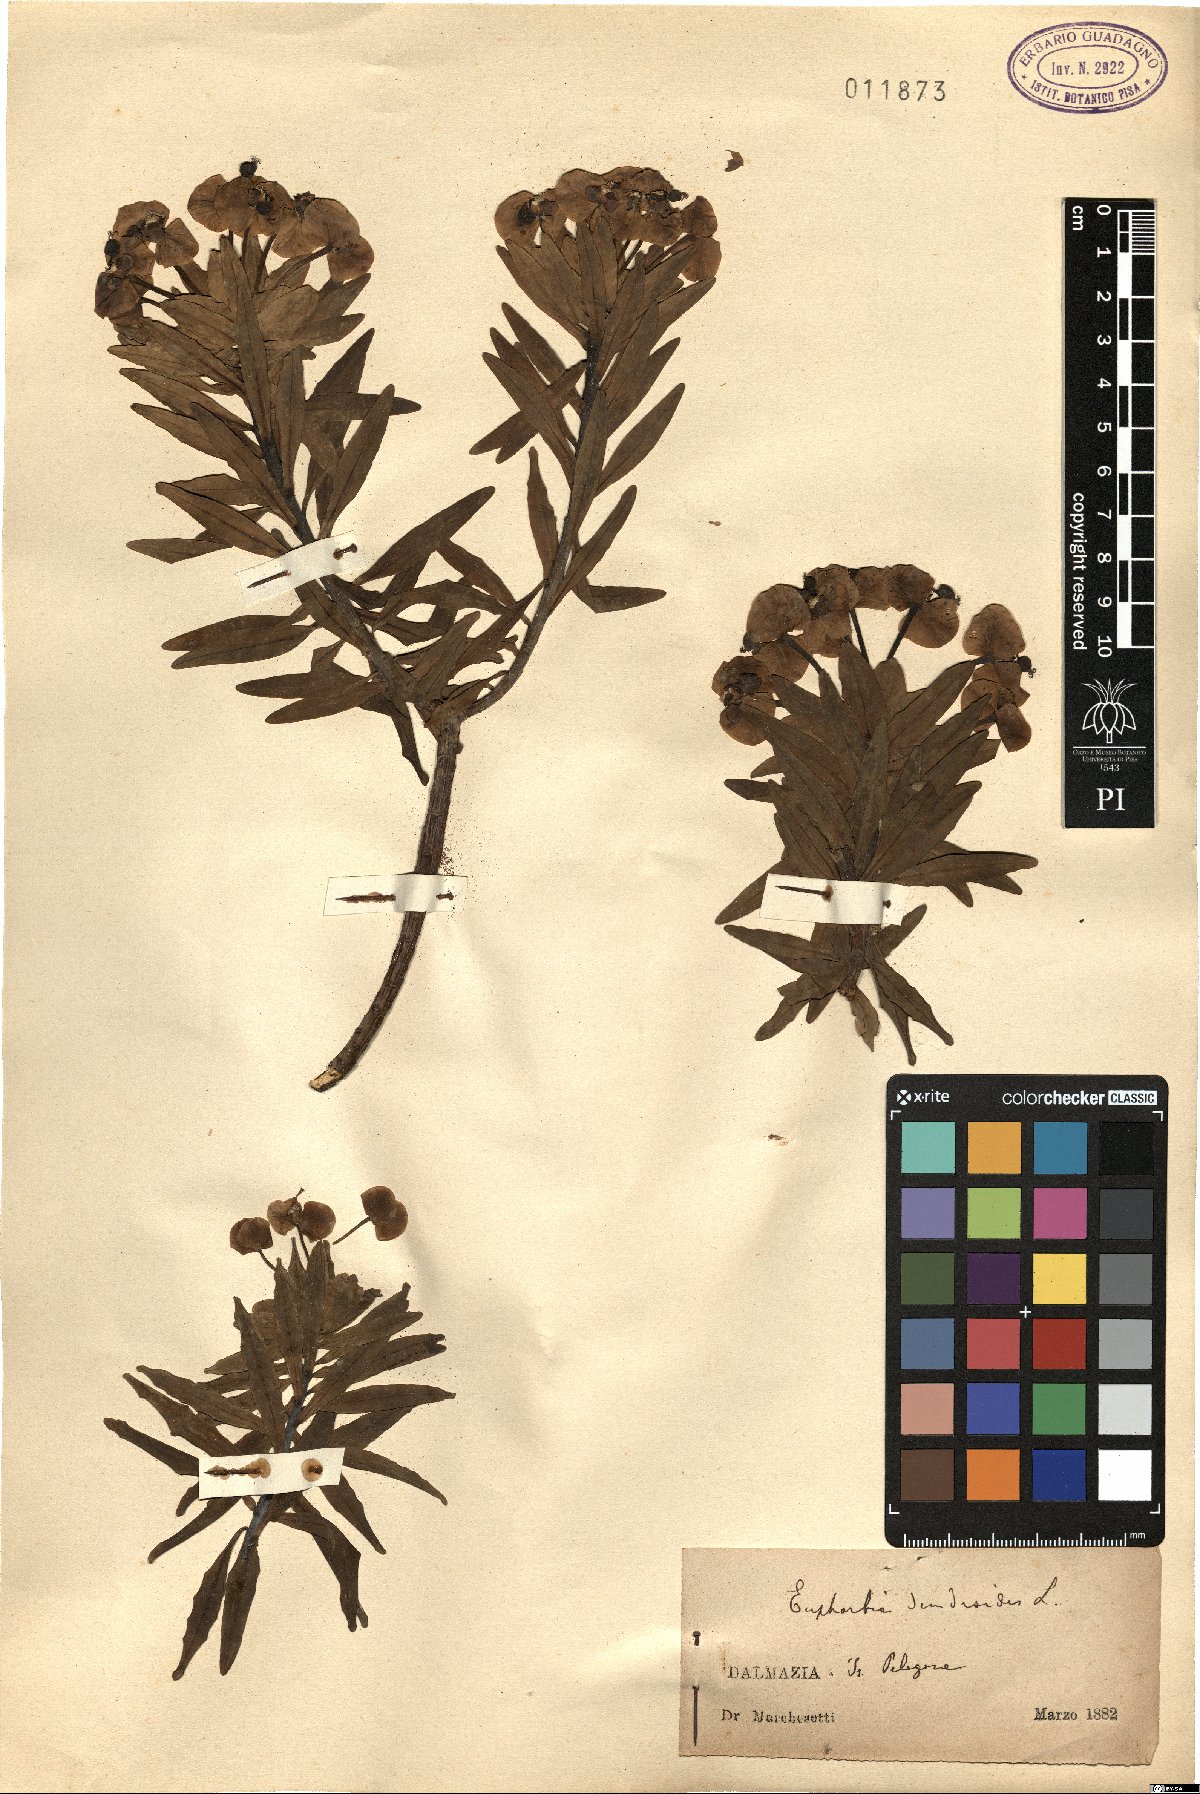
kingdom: Plantae
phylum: Tracheophyta
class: Magnoliopsida
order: Malpighiales
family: Euphorbiaceae
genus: Euphorbia
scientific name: Euphorbia dendroides
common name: Tree spurge
